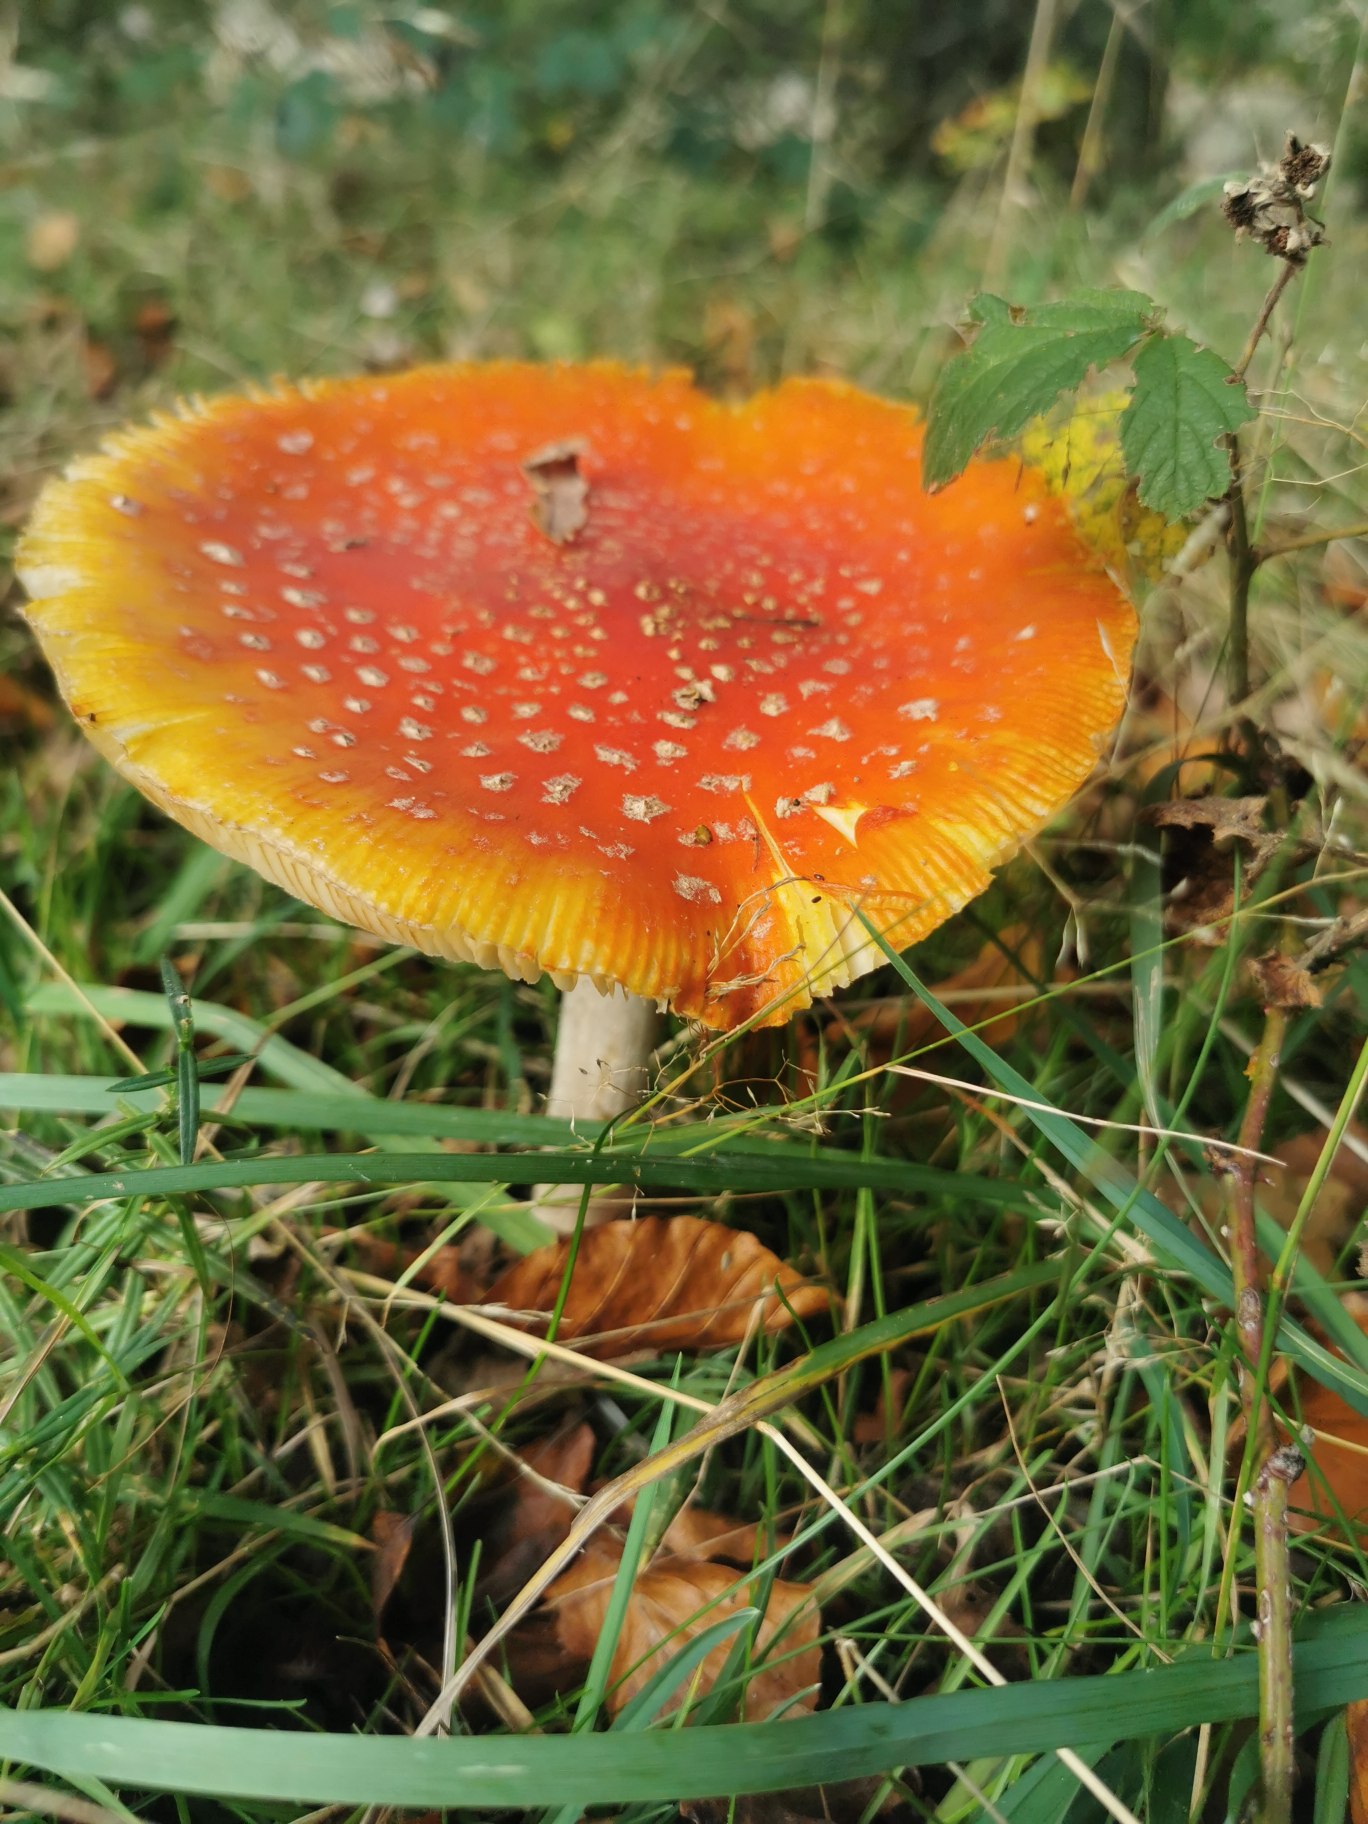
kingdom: Fungi
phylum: Basidiomycota
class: Agaricomycetes
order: Agaricales
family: Amanitaceae
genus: Amanita
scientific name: Amanita muscaria
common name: Rød fluesvamp
